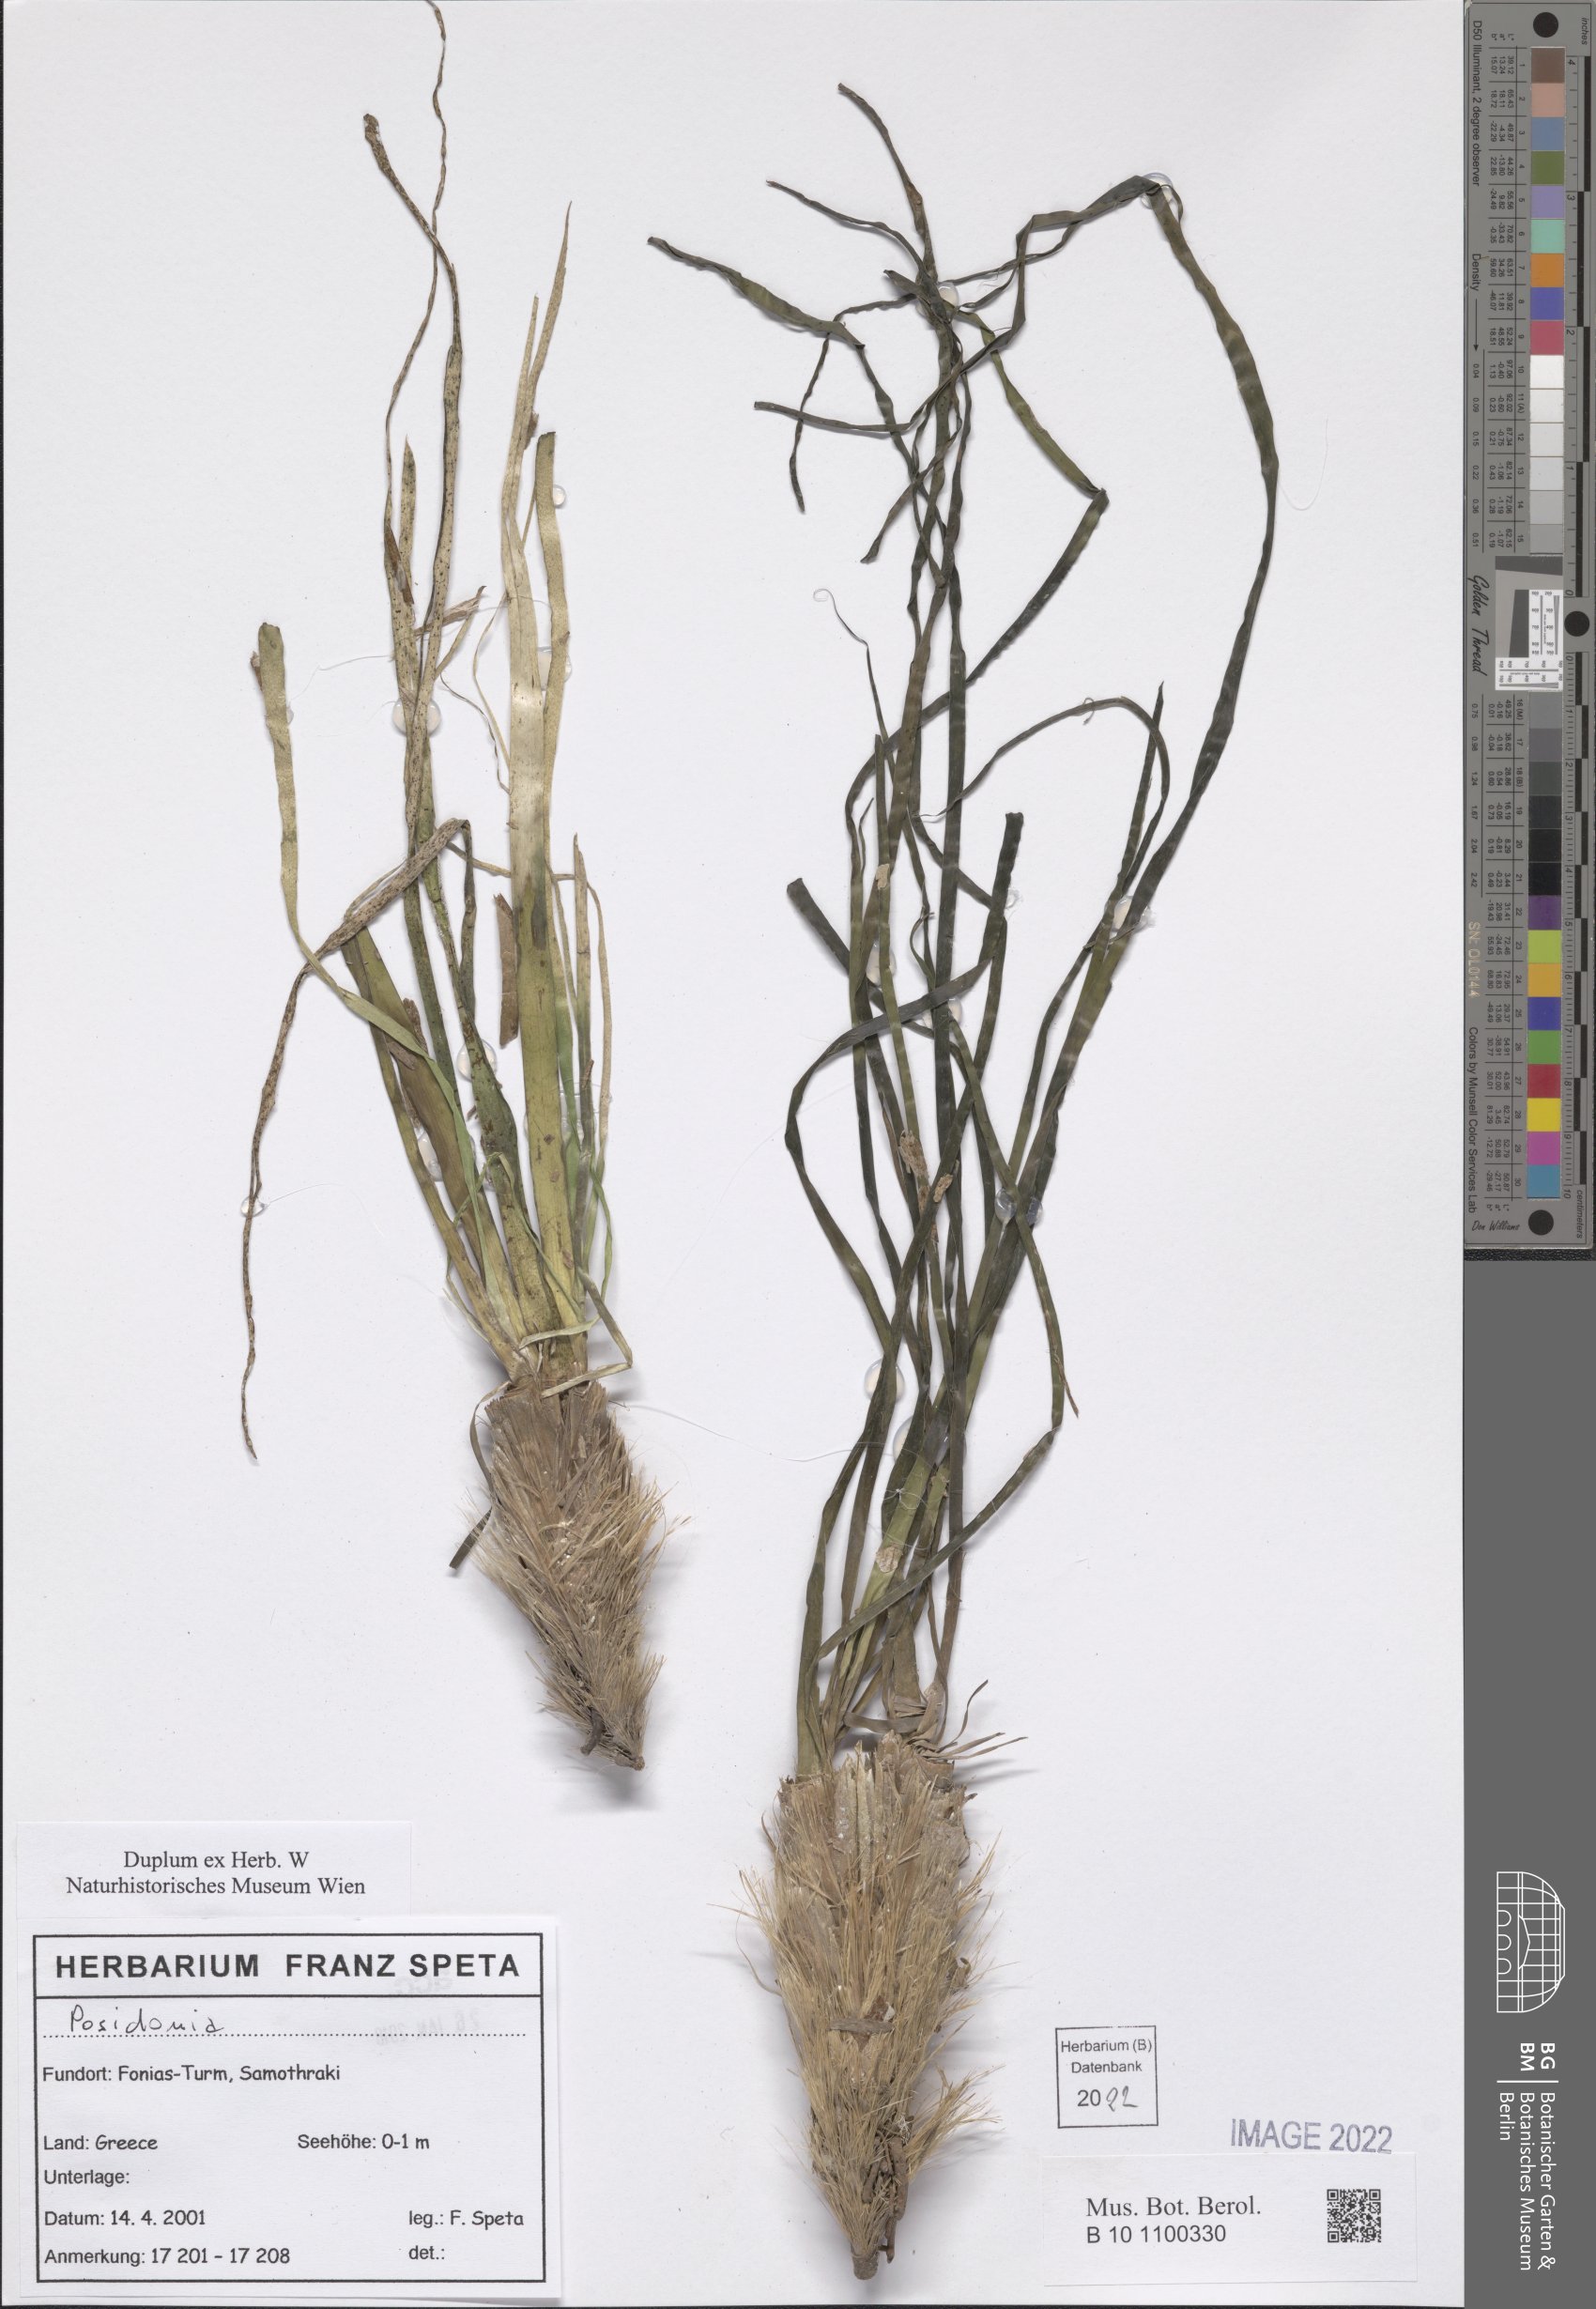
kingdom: Plantae
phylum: Tracheophyta
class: Liliopsida
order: Alismatales
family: Posidoniaceae
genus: Posidonia
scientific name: Posidonia
